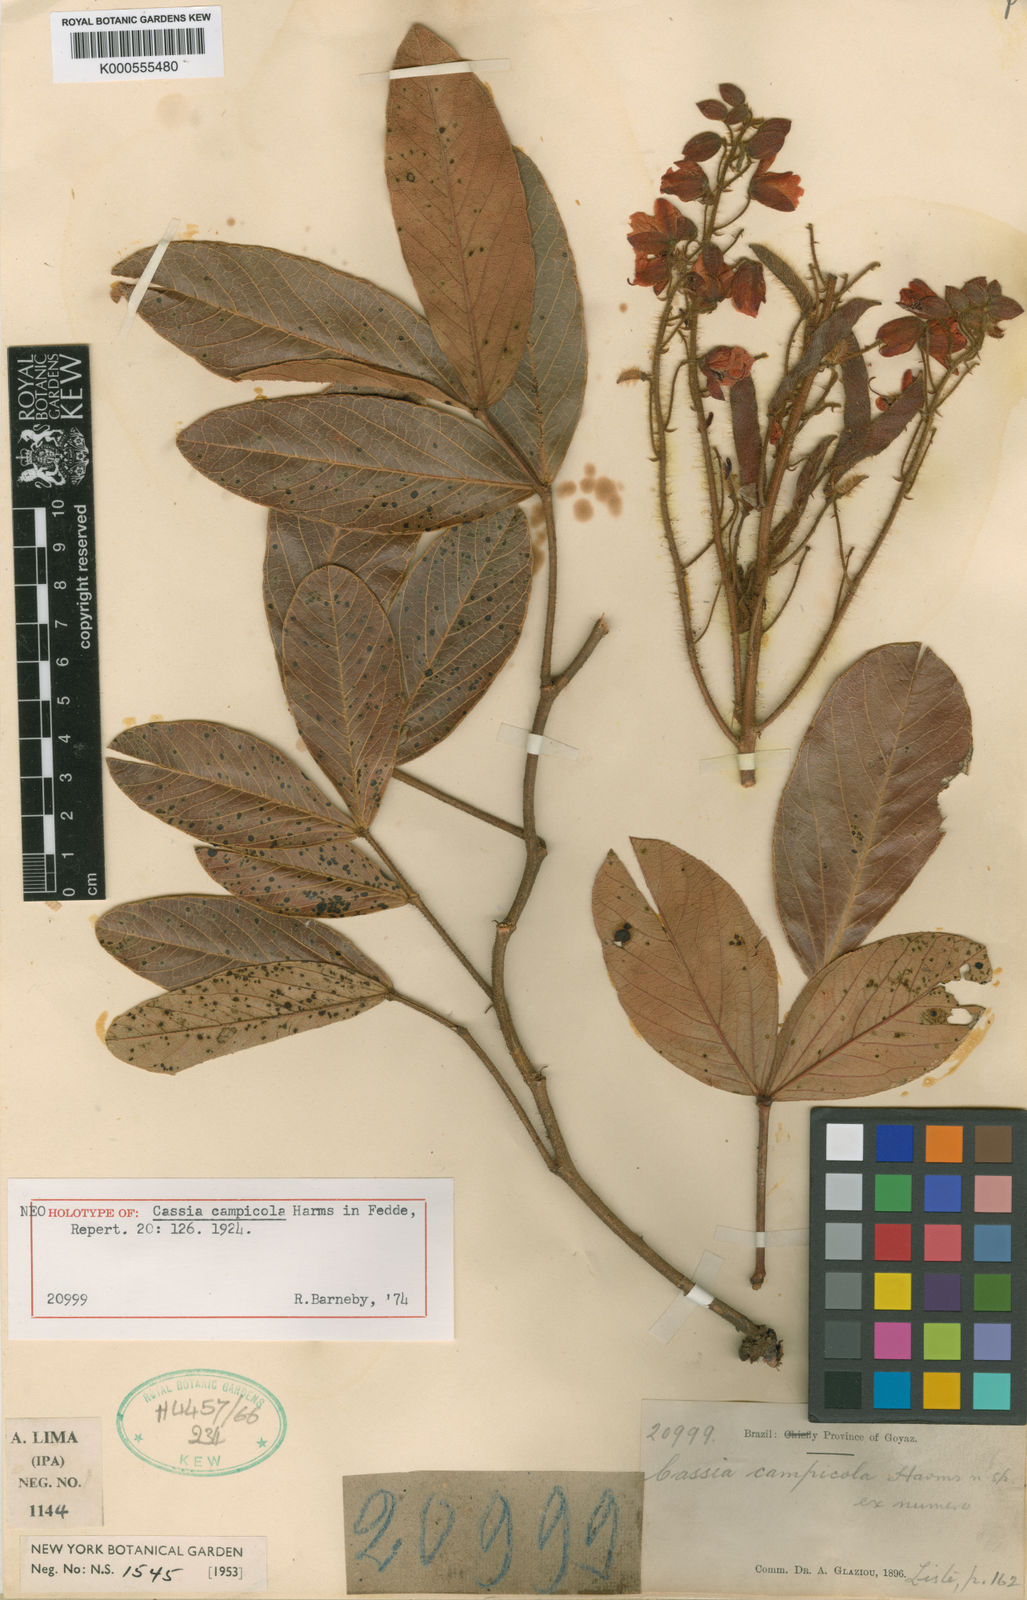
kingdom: Plantae
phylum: Tracheophyta
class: Magnoliopsida
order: Fabales
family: Fabaceae
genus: Chamaecrista
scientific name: Chamaecrista campicola
